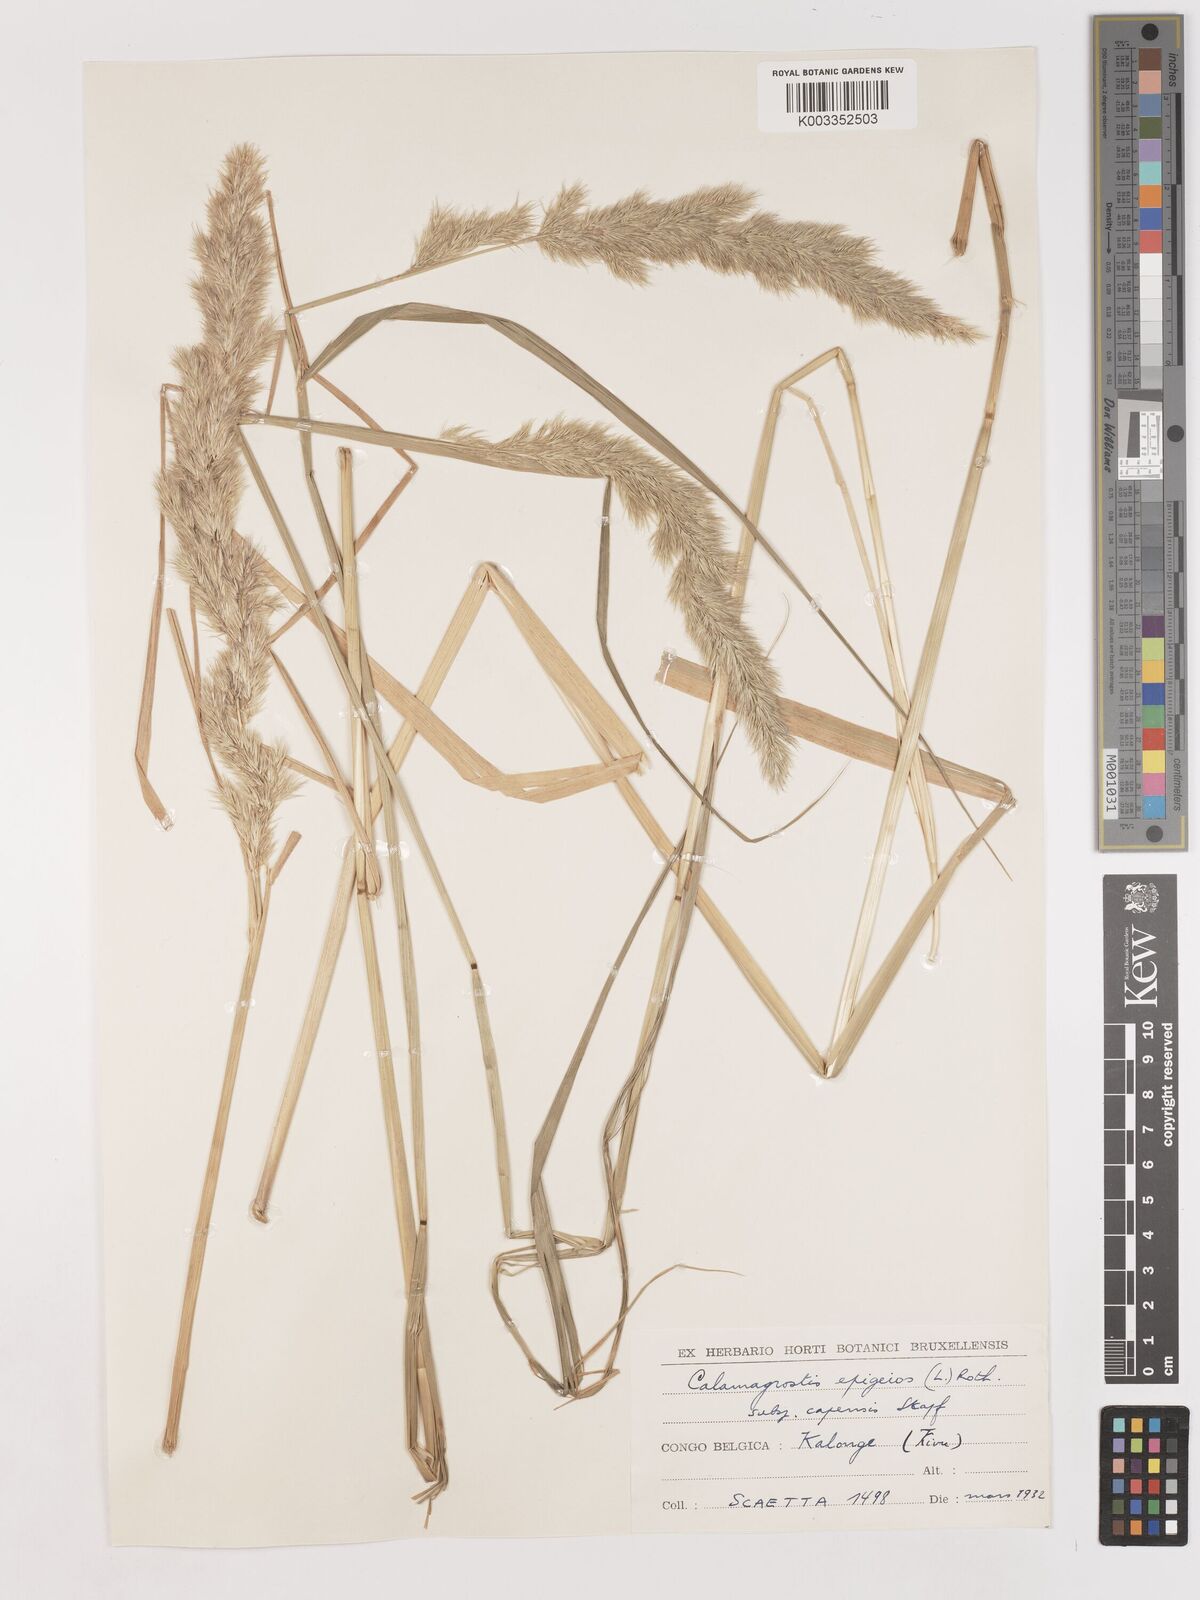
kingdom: Plantae
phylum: Tracheophyta
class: Liliopsida
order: Poales
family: Poaceae
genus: Calamagrostis
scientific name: Calamagrostis epigejos
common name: Wood small-reed
